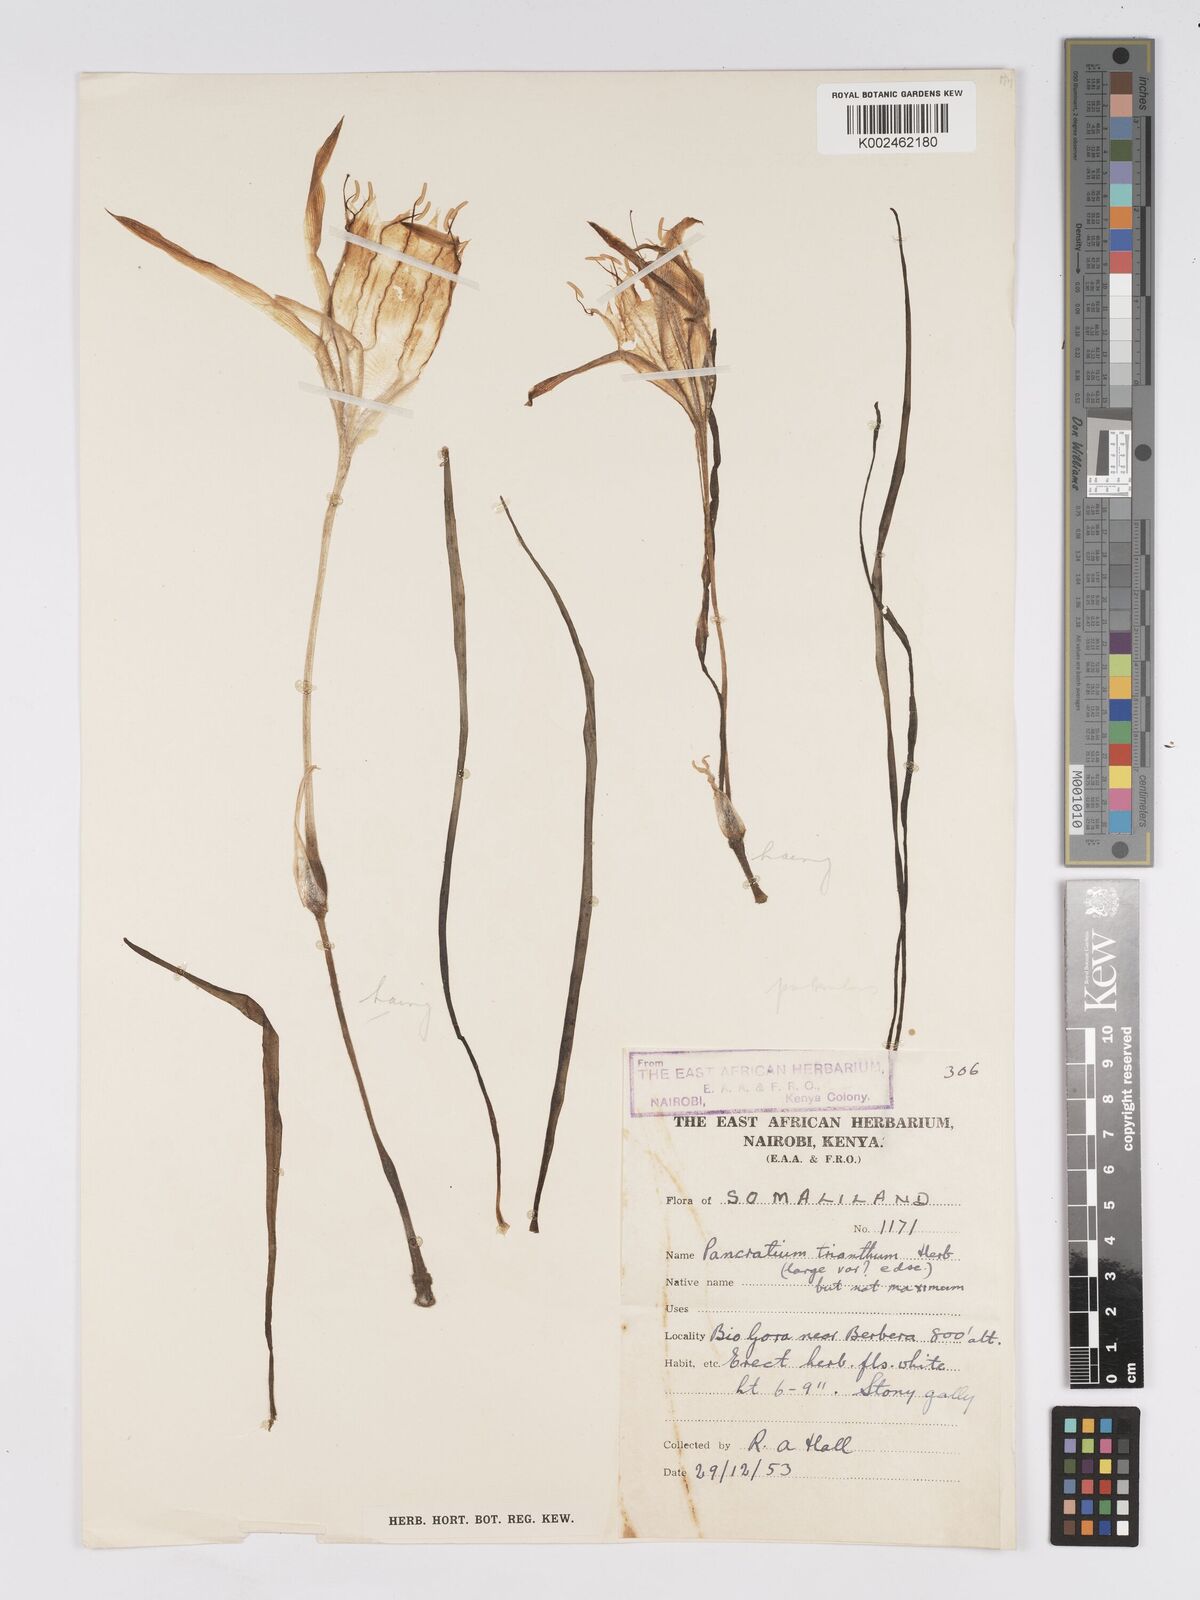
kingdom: Plantae
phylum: Tracheophyta
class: Liliopsida
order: Asparagales
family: Amaryllidaceae
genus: Pancratium
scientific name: Pancratium trianthum
